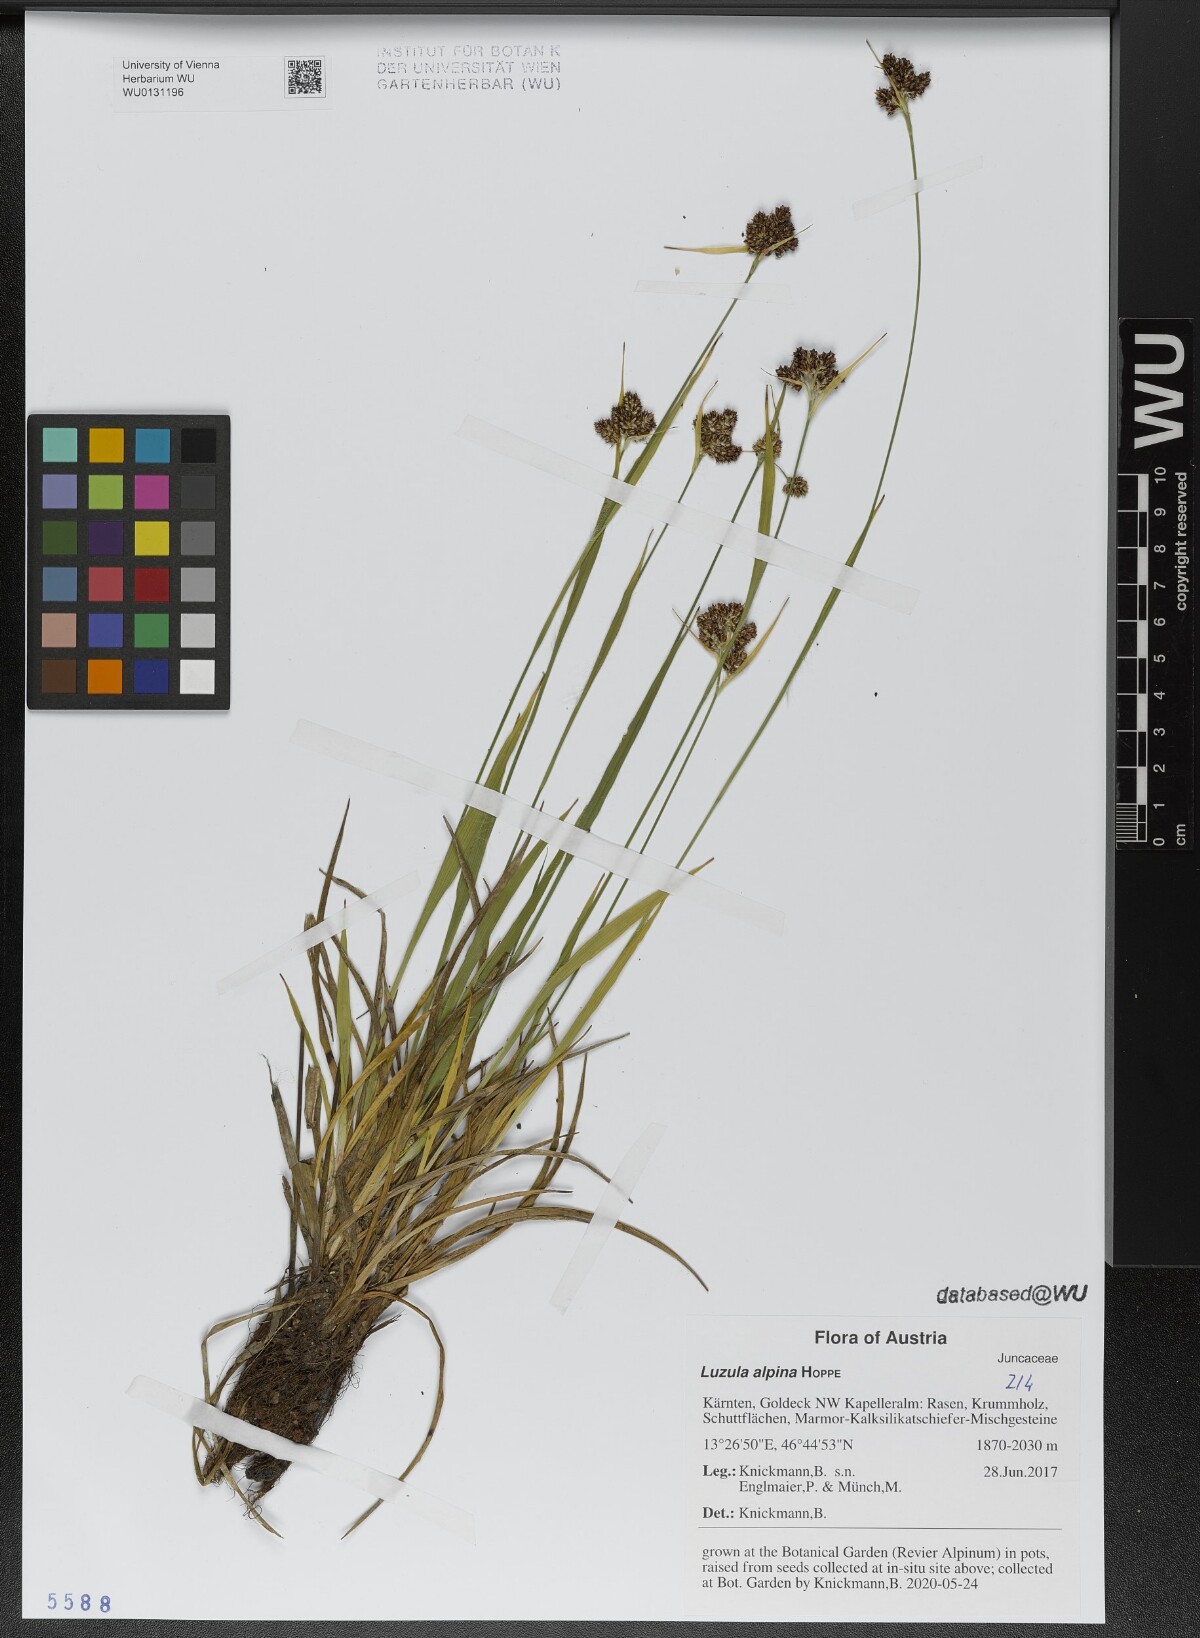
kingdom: Plantae
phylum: Tracheophyta
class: Liliopsida
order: Poales
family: Juncaceae
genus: Luzula
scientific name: Luzula alpina
